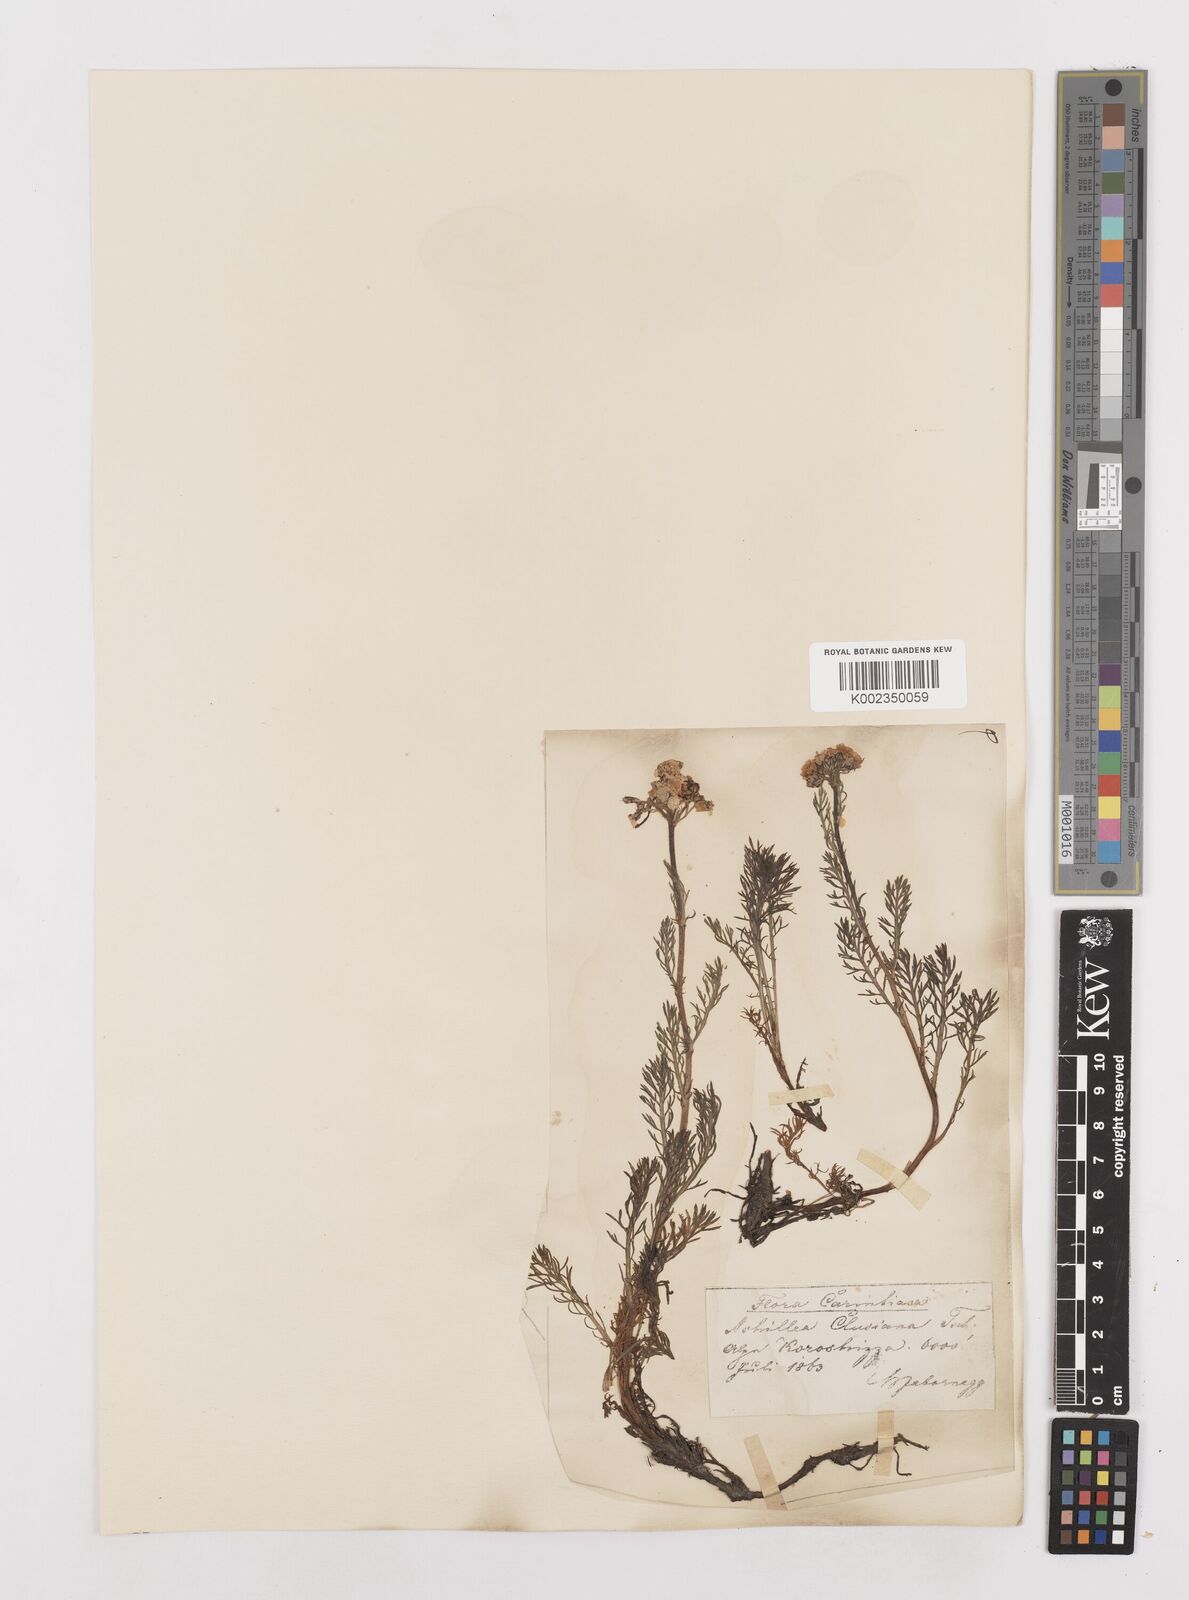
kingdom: Plantae
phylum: Tracheophyta
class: Magnoliopsida
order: Asterales
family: Asteraceae
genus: Achillea
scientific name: Achillea atrata
